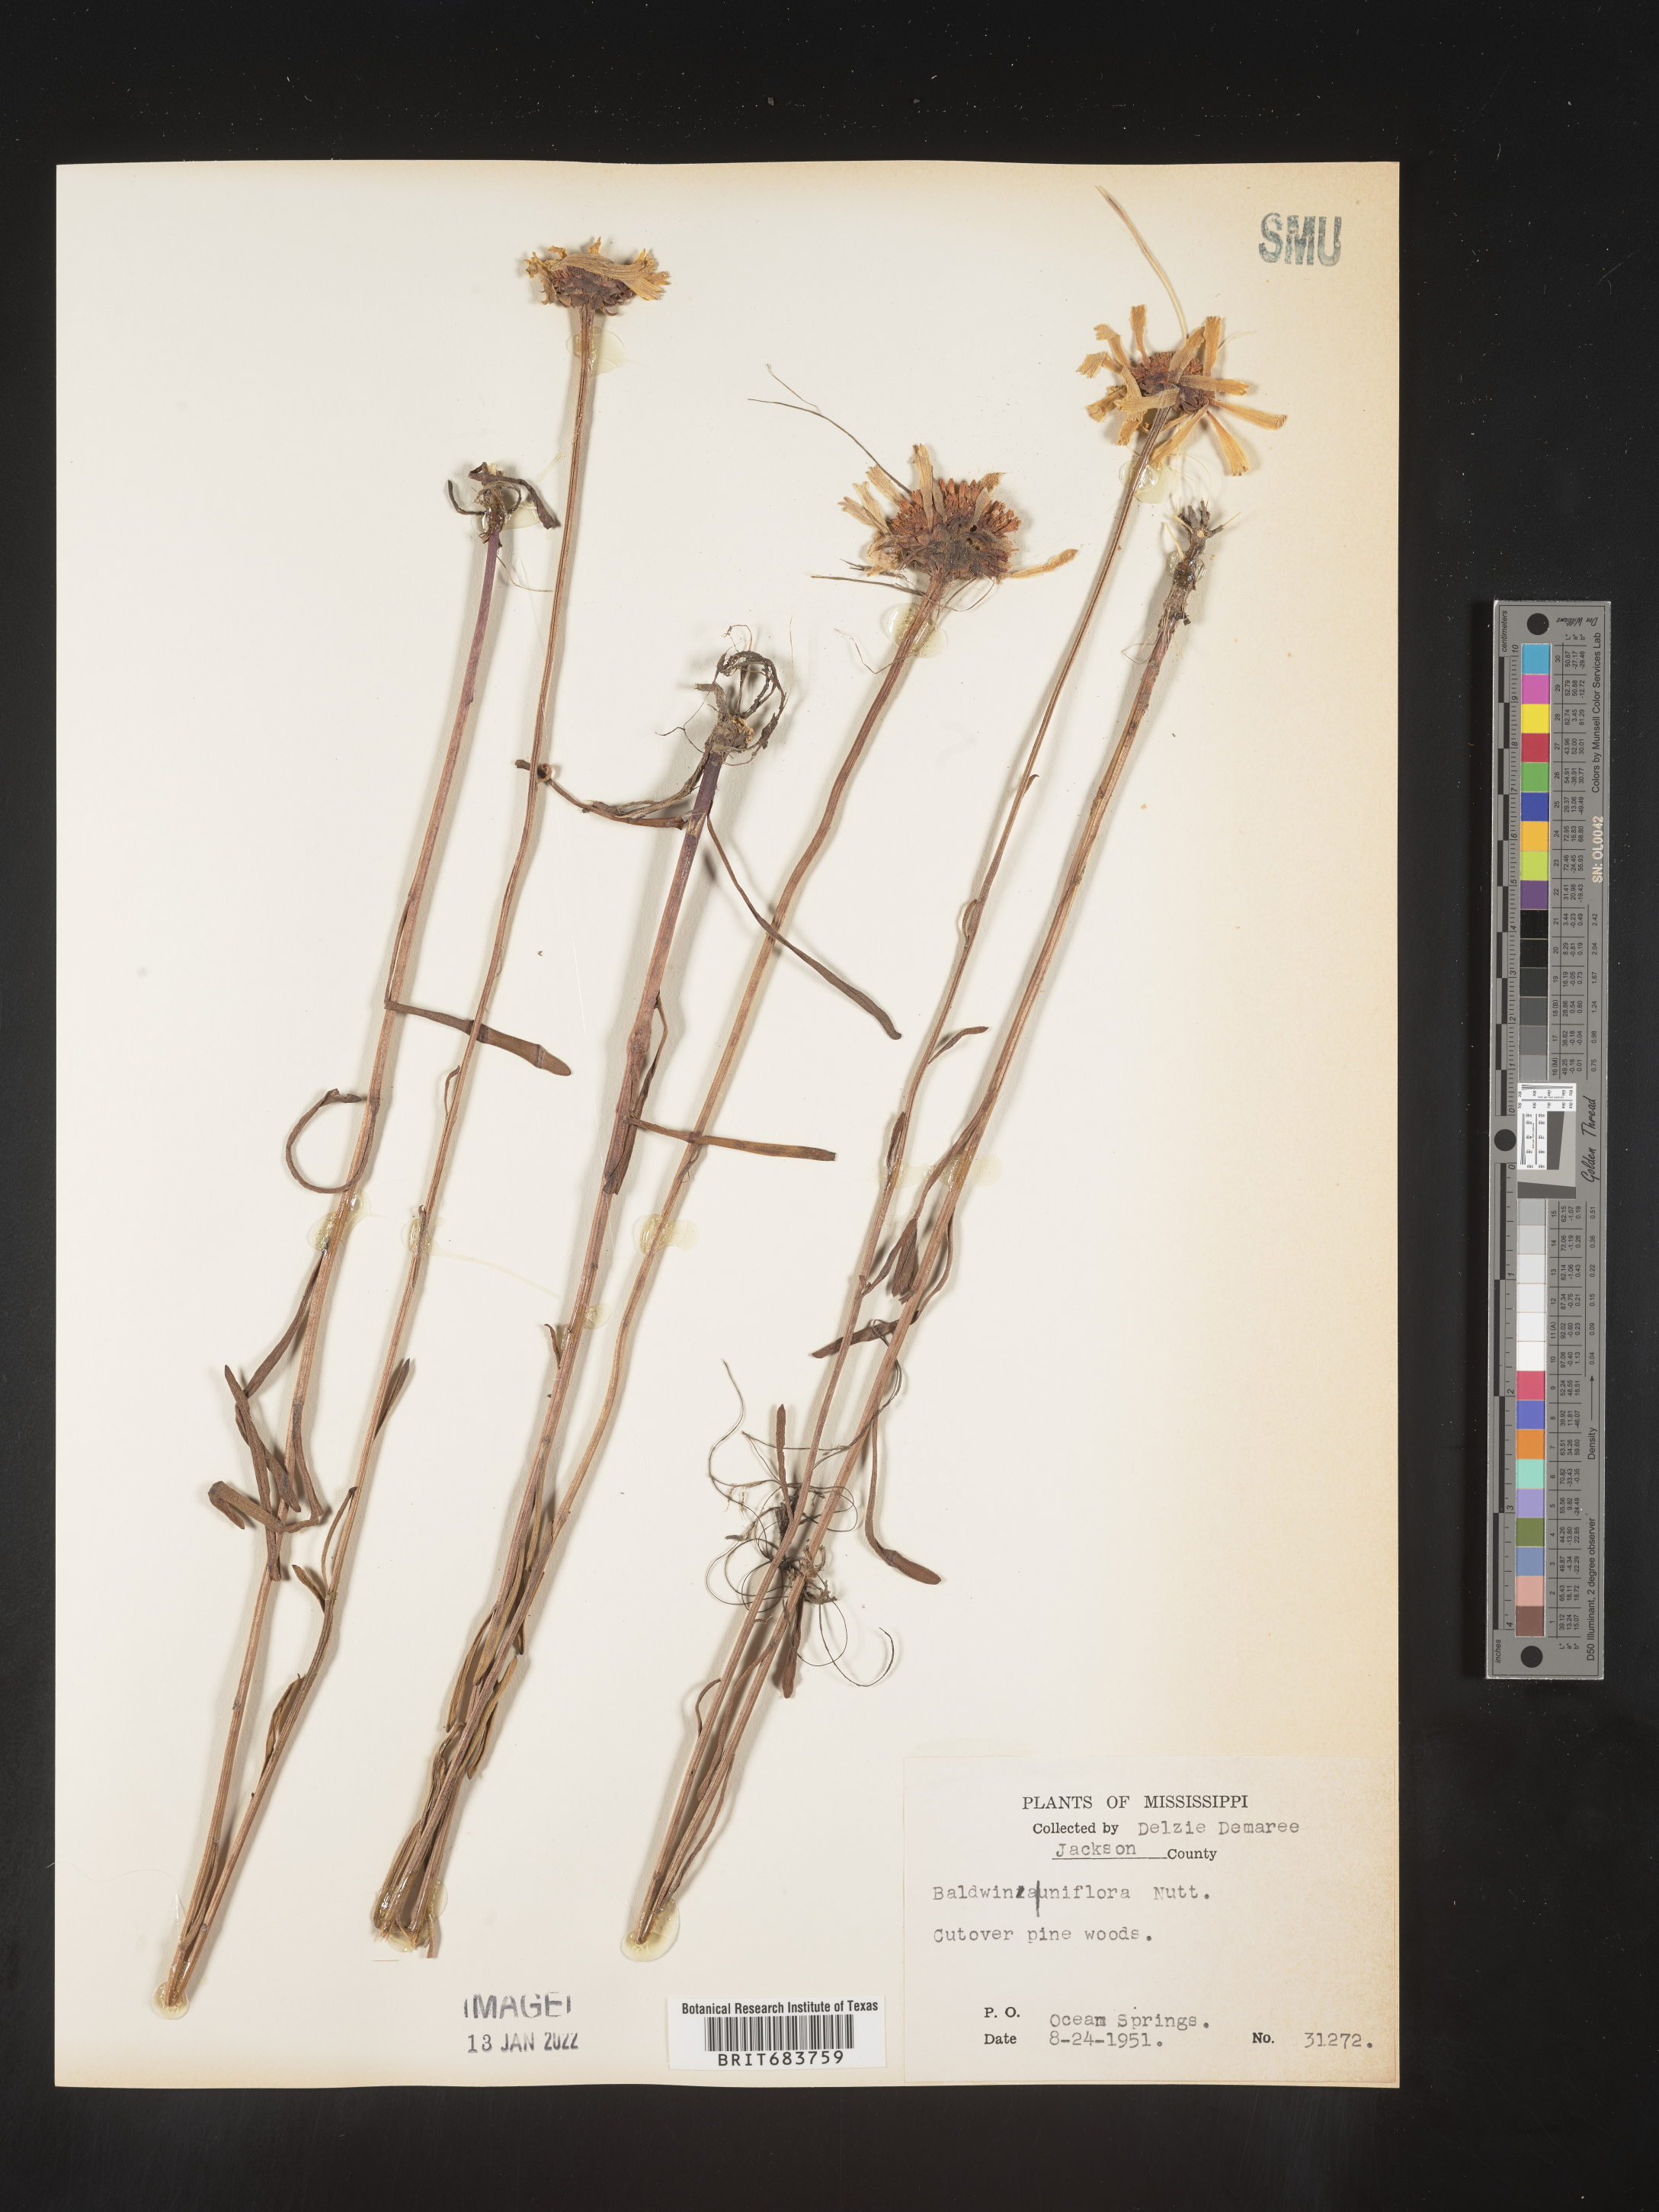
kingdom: Plantae
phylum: Tracheophyta
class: Magnoliopsida
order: Asterales
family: Asteraceae
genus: Balduina
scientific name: Balduina uniflora
